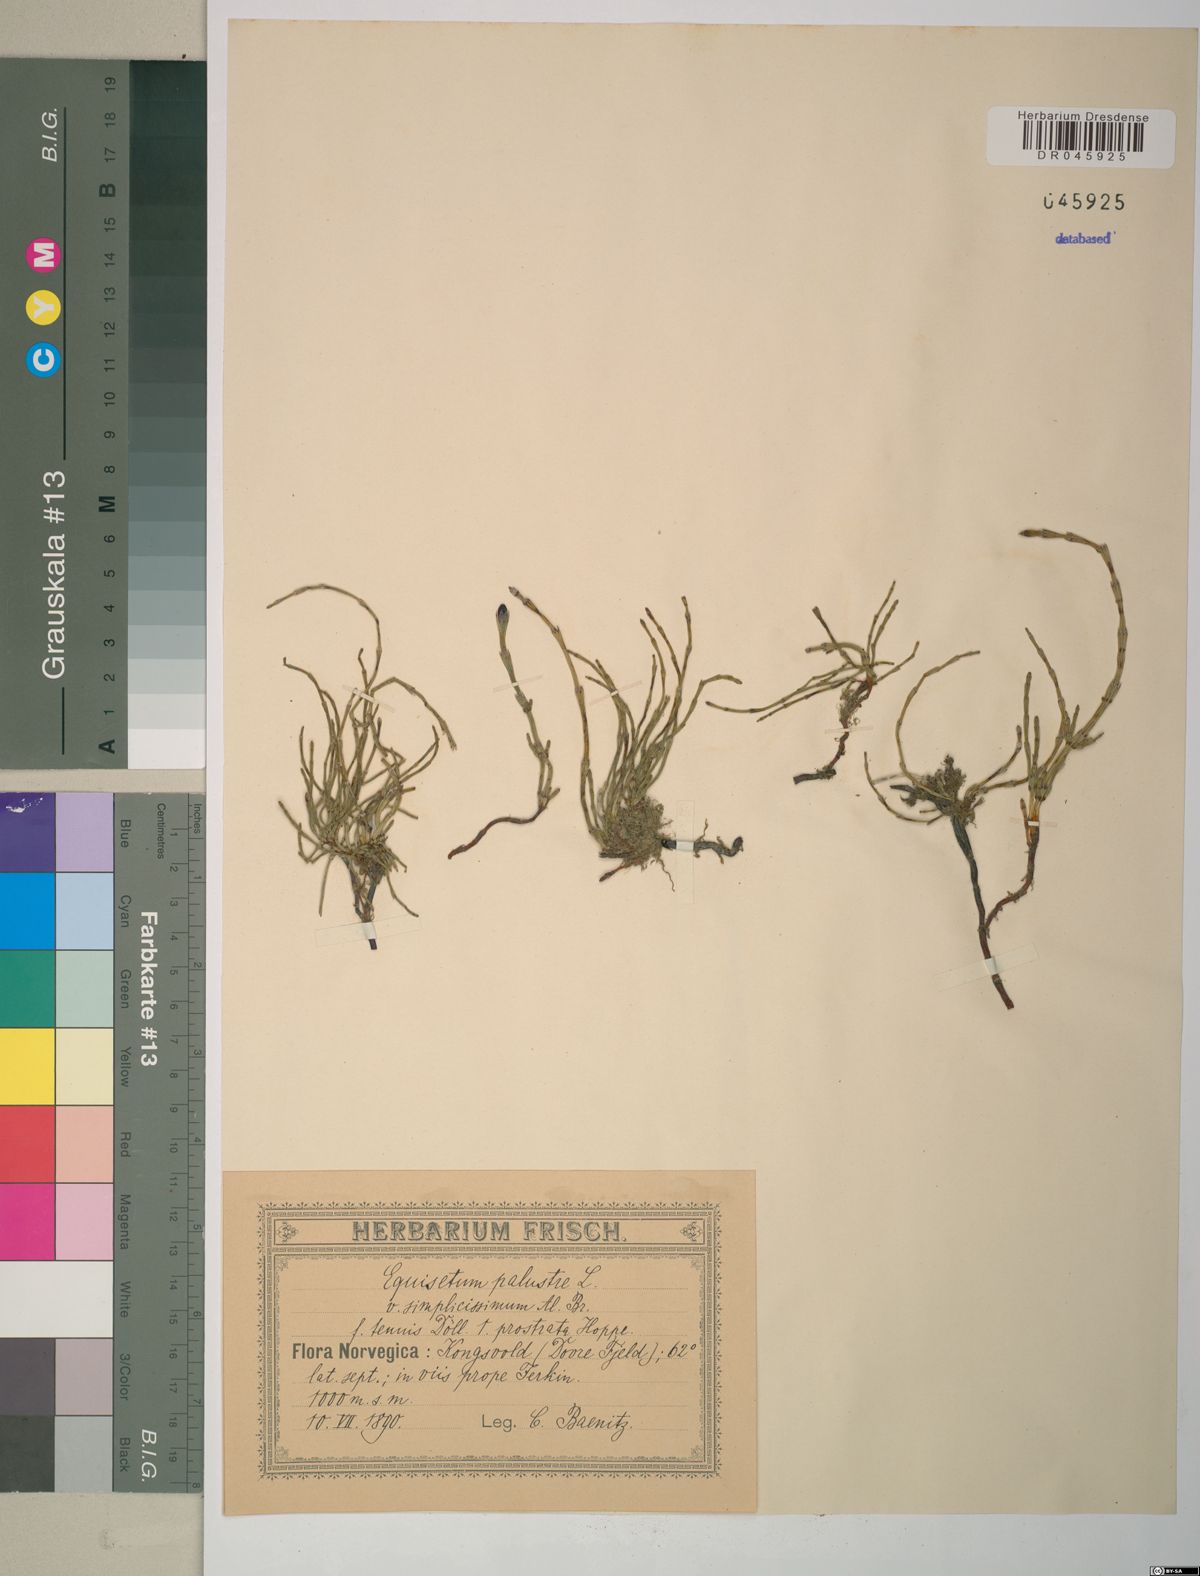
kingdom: Plantae
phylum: Tracheophyta
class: Polypodiopsida
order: Equisetales
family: Equisetaceae
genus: Equisetum
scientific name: Equisetum palustre
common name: Marsh horsetail
